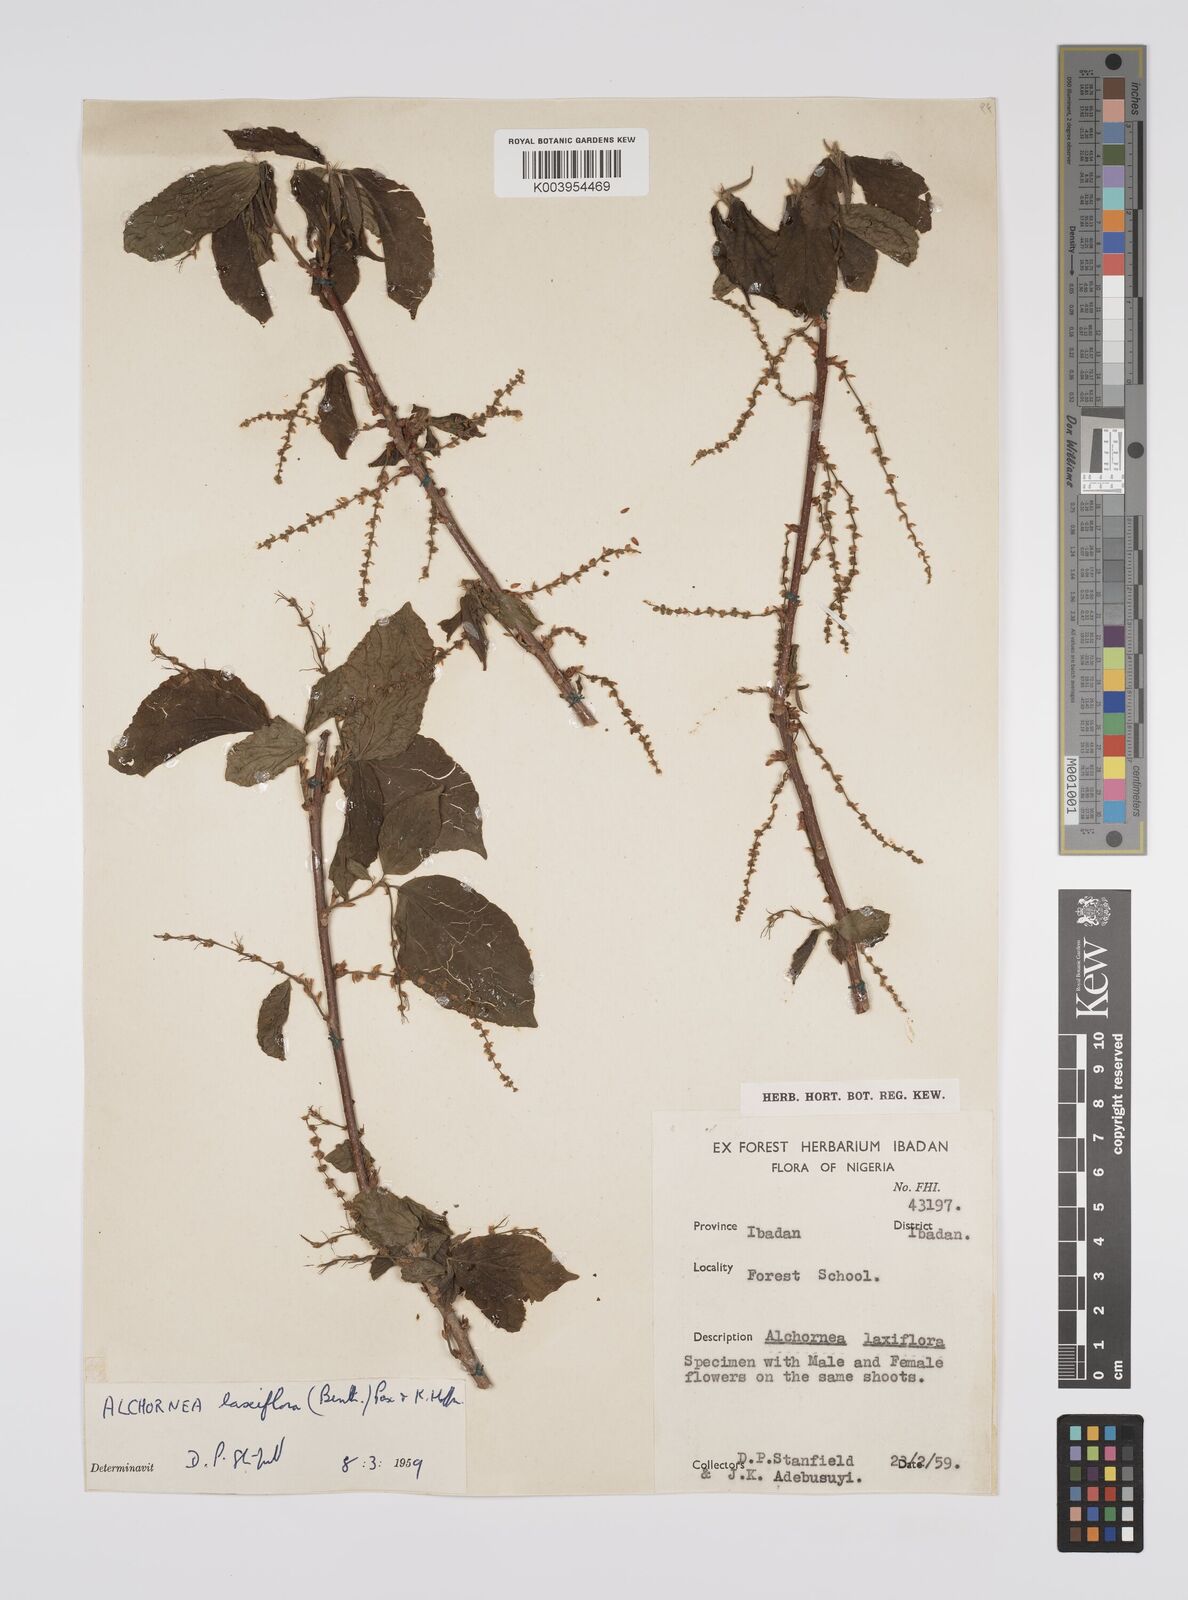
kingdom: Plantae
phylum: Tracheophyta
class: Magnoliopsida
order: Malpighiales
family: Euphorbiaceae
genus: Alchornea
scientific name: Alchornea laxiflora
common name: Lowveld bead-string
